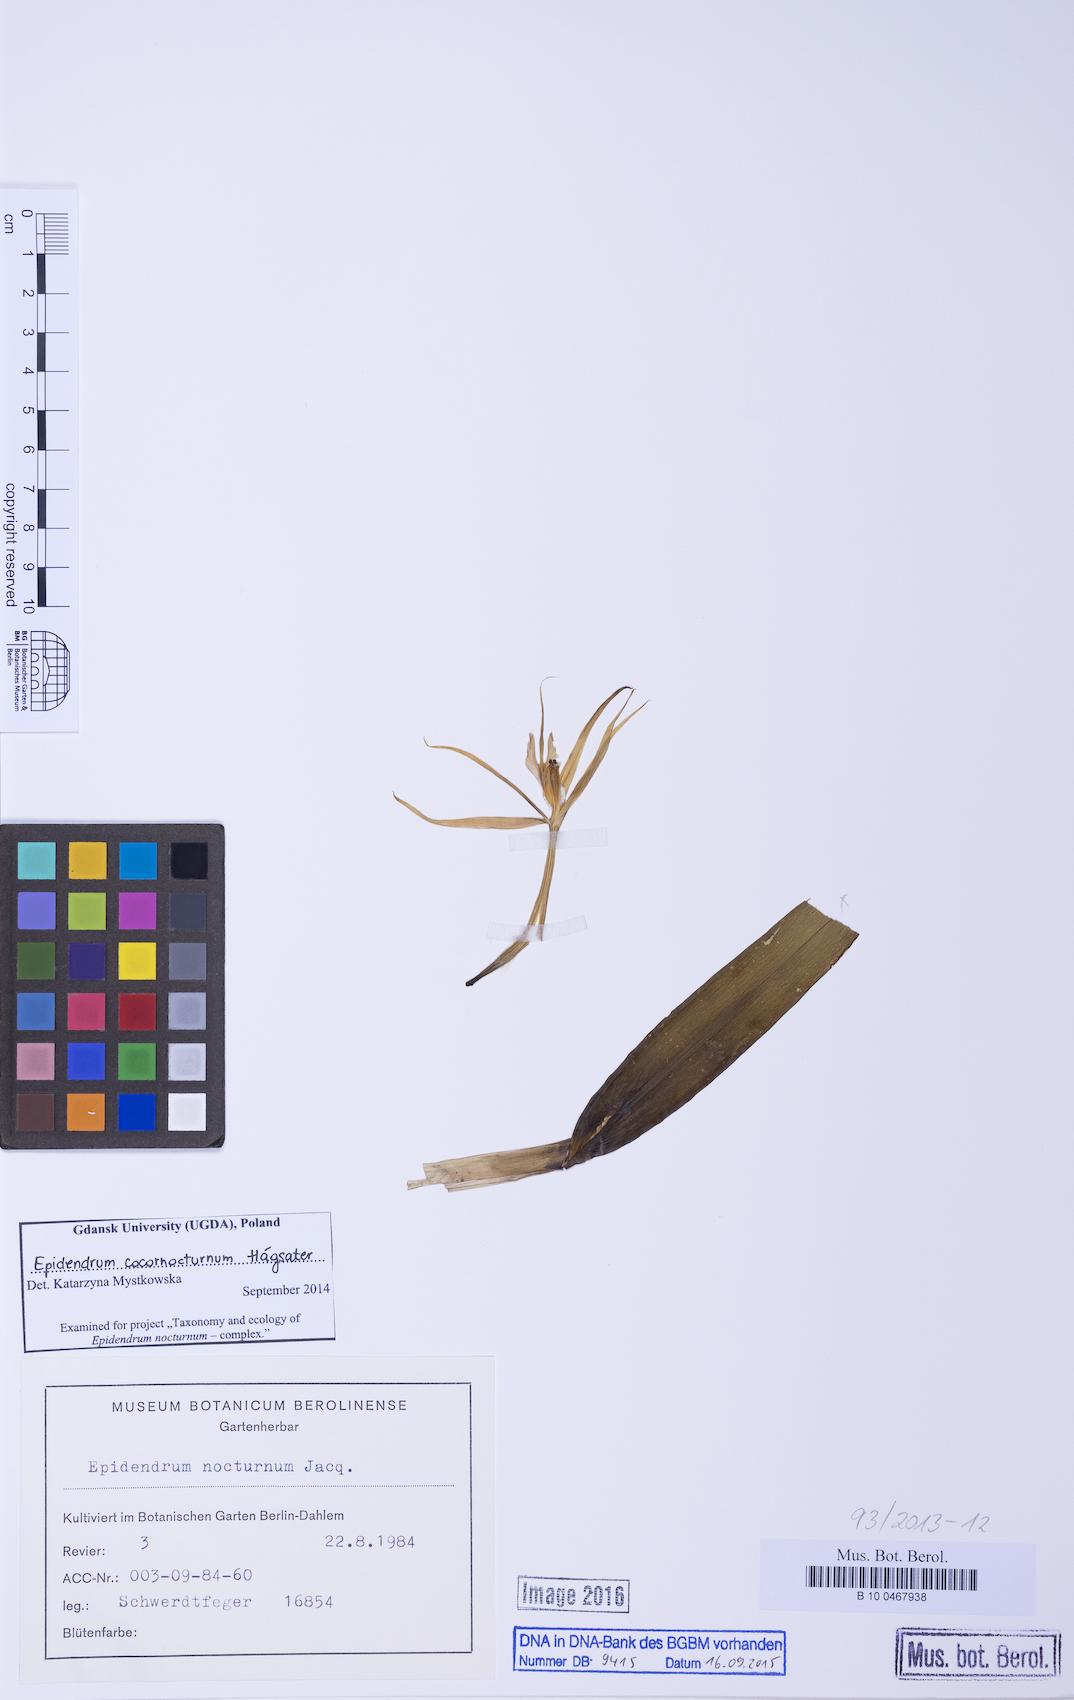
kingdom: Plantae
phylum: Tracheophyta
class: Liliopsida
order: Asparagales
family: Orchidaceae
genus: Epidendrum
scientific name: Epidendrum cocornocturnum
